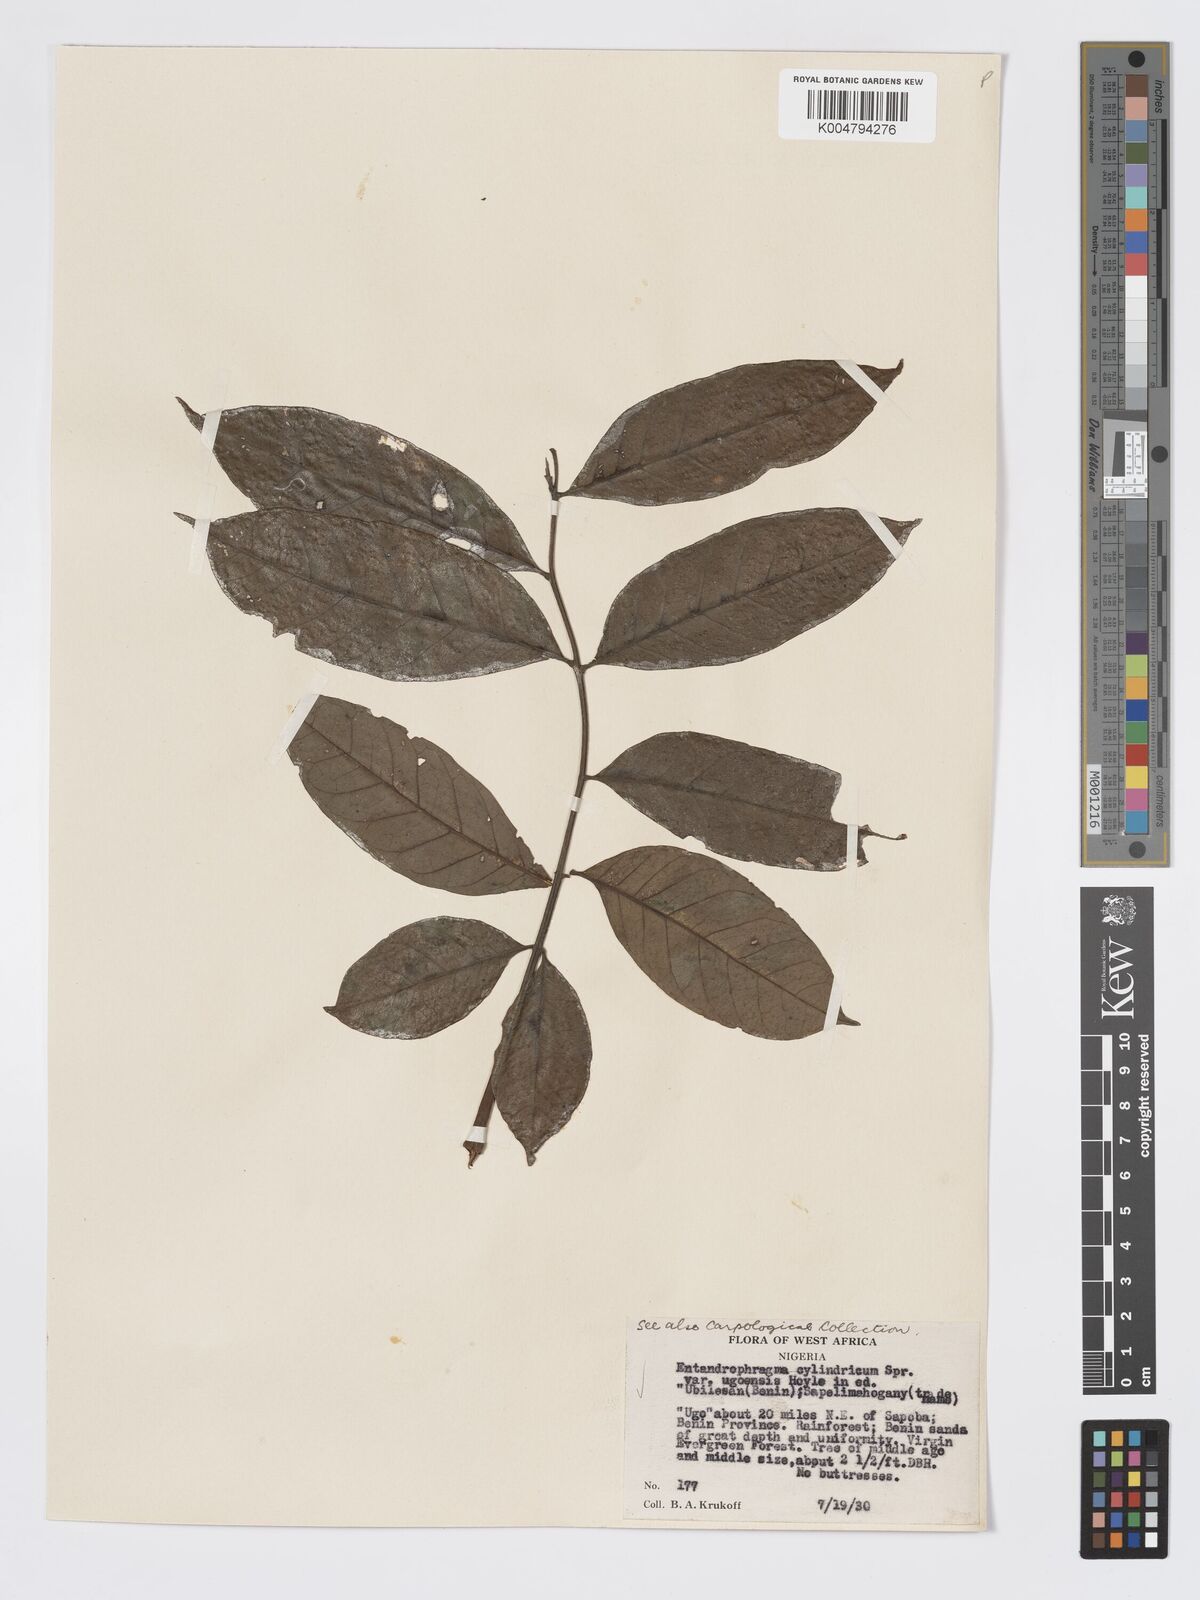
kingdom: Plantae
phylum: Tracheophyta
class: Magnoliopsida
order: Sapindales
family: Meliaceae
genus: Entandrophragma
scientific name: Entandrophragma cylindricum
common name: Sapele
